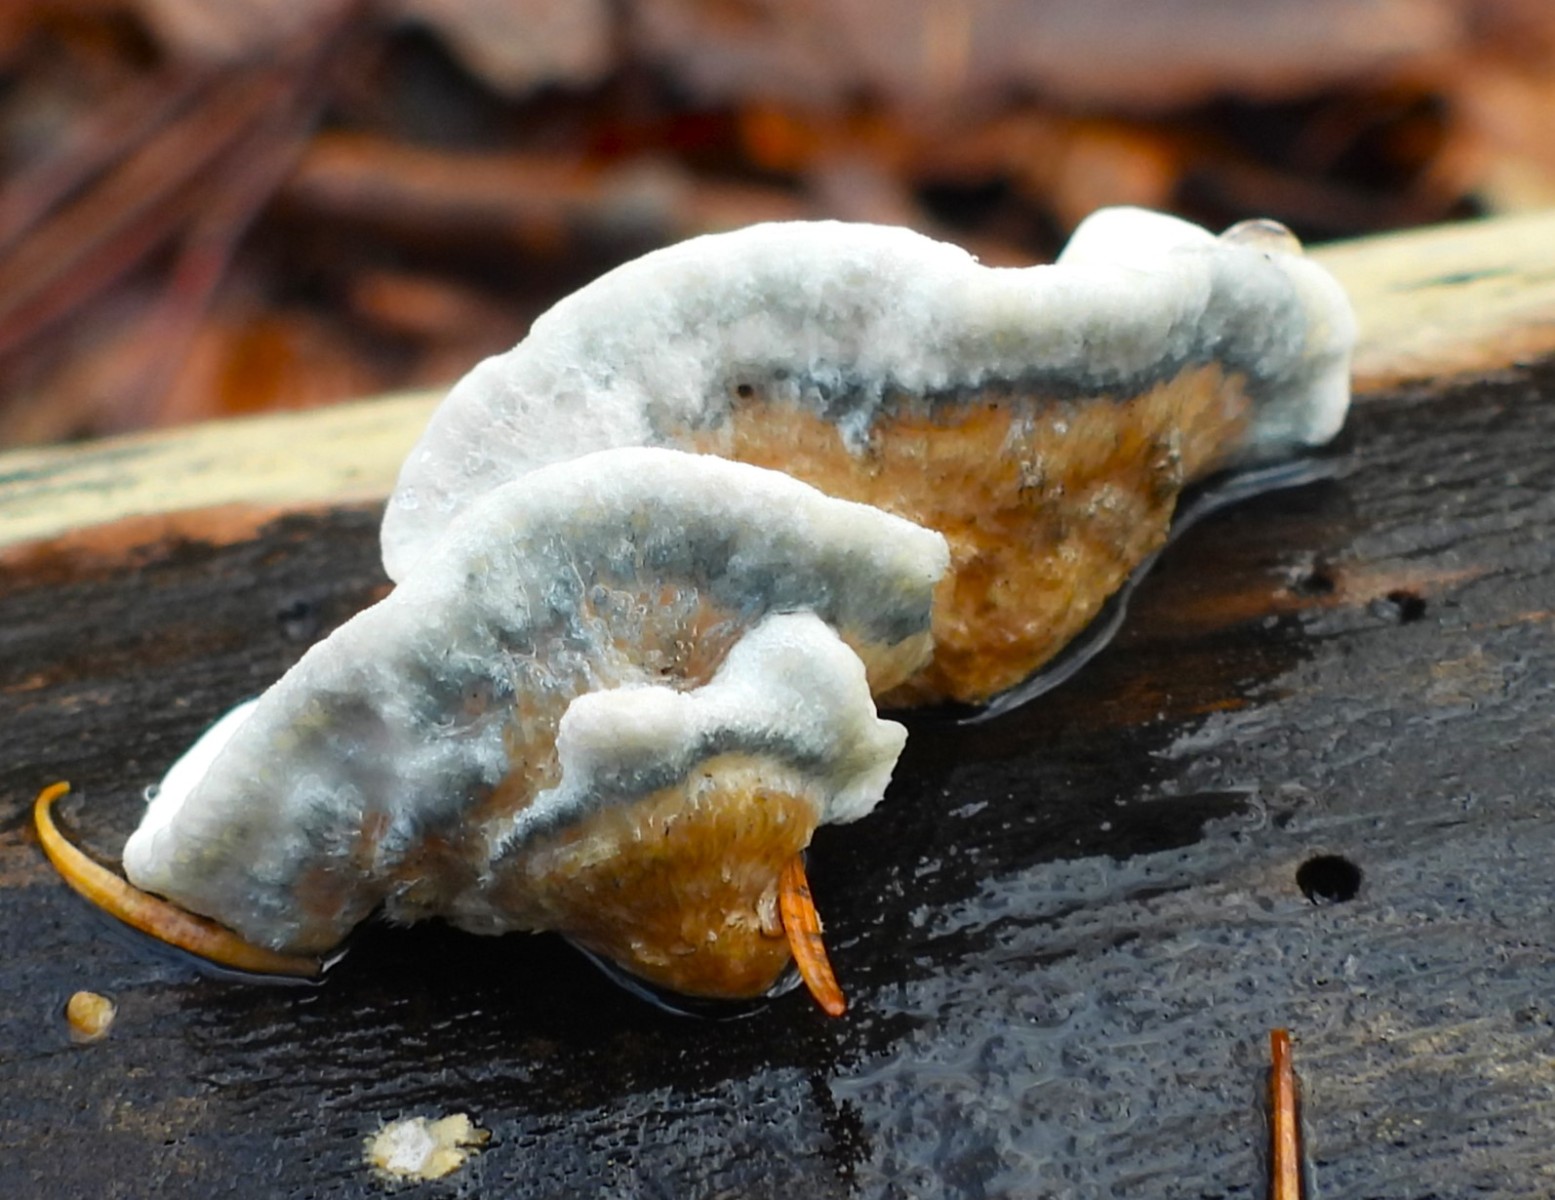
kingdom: Fungi
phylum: Basidiomycota
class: Agaricomycetes
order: Polyporales
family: Polyporaceae
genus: Cyanosporus
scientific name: Cyanosporus alni
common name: blegblå kødporesvamp
